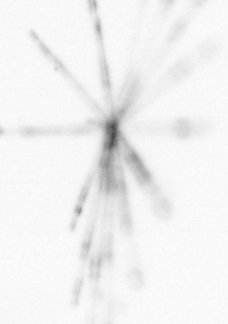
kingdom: Chromista
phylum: Ochrophyta
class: Bacillariophyceae
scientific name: Bacillariophyceae
